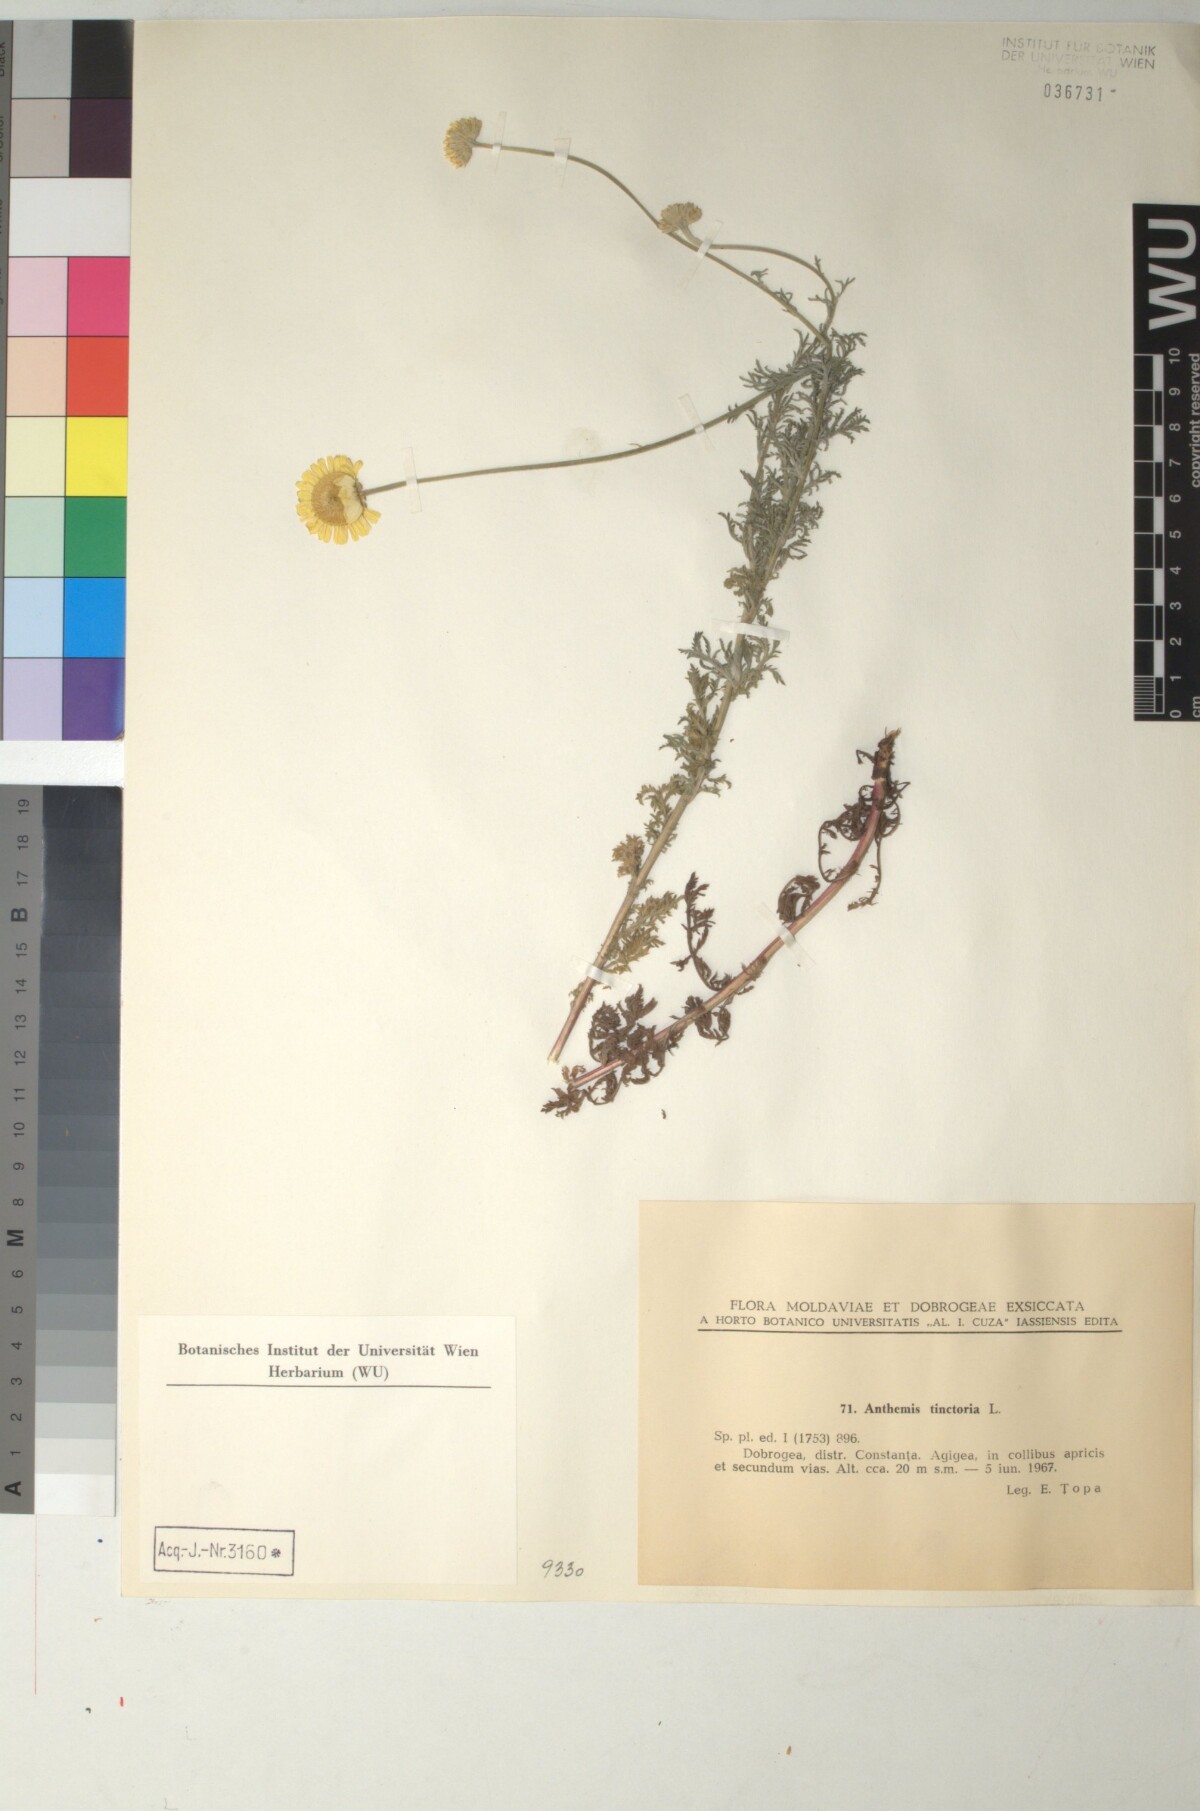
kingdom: Plantae
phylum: Tracheophyta
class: Magnoliopsida
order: Asterales
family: Asteraceae
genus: Cota
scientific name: Cota tinctoria
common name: Golden chamomile
